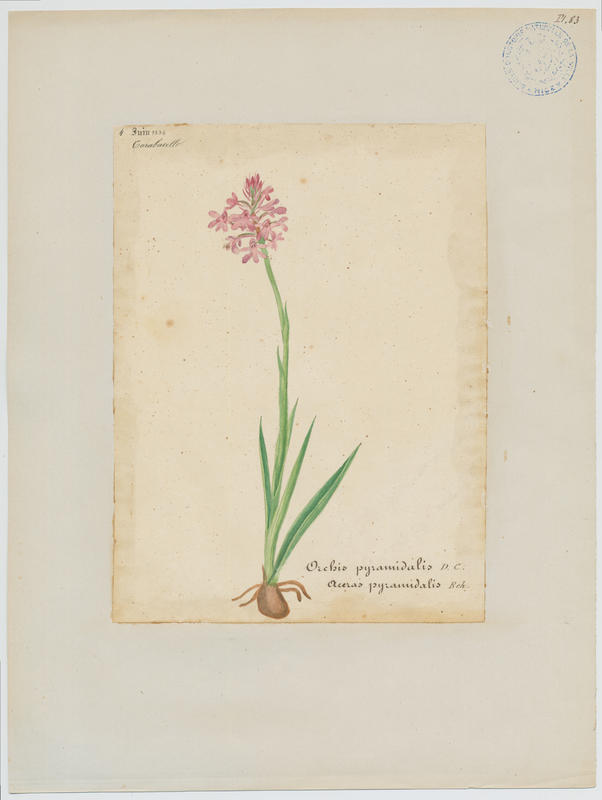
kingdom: Plantae
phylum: Tracheophyta
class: Liliopsida
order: Asparagales
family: Orchidaceae
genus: Anacamptis
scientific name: Anacamptis pyramidalis
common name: Pyramidal orchid
